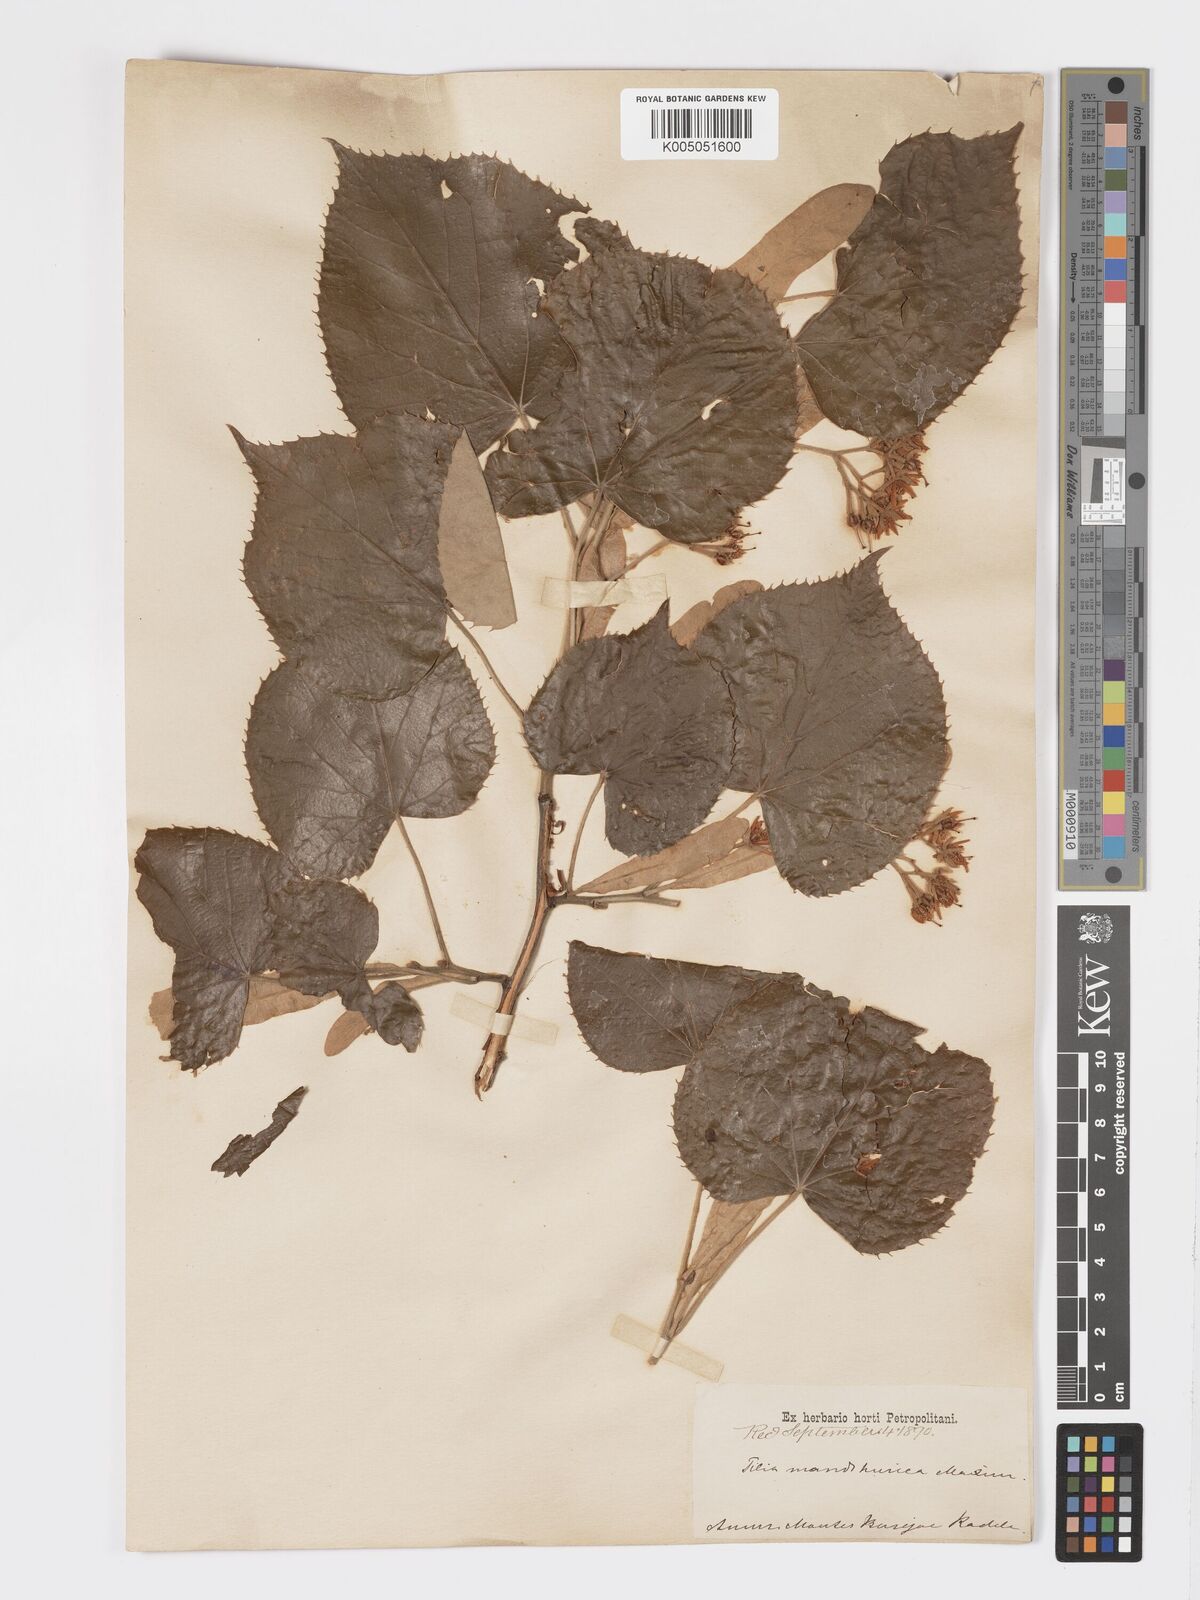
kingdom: Plantae
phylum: Tracheophyta
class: Magnoliopsida
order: Malvales
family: Malvaceae
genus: Tilia
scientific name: Tilia mandshurica
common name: Manchurian linden
